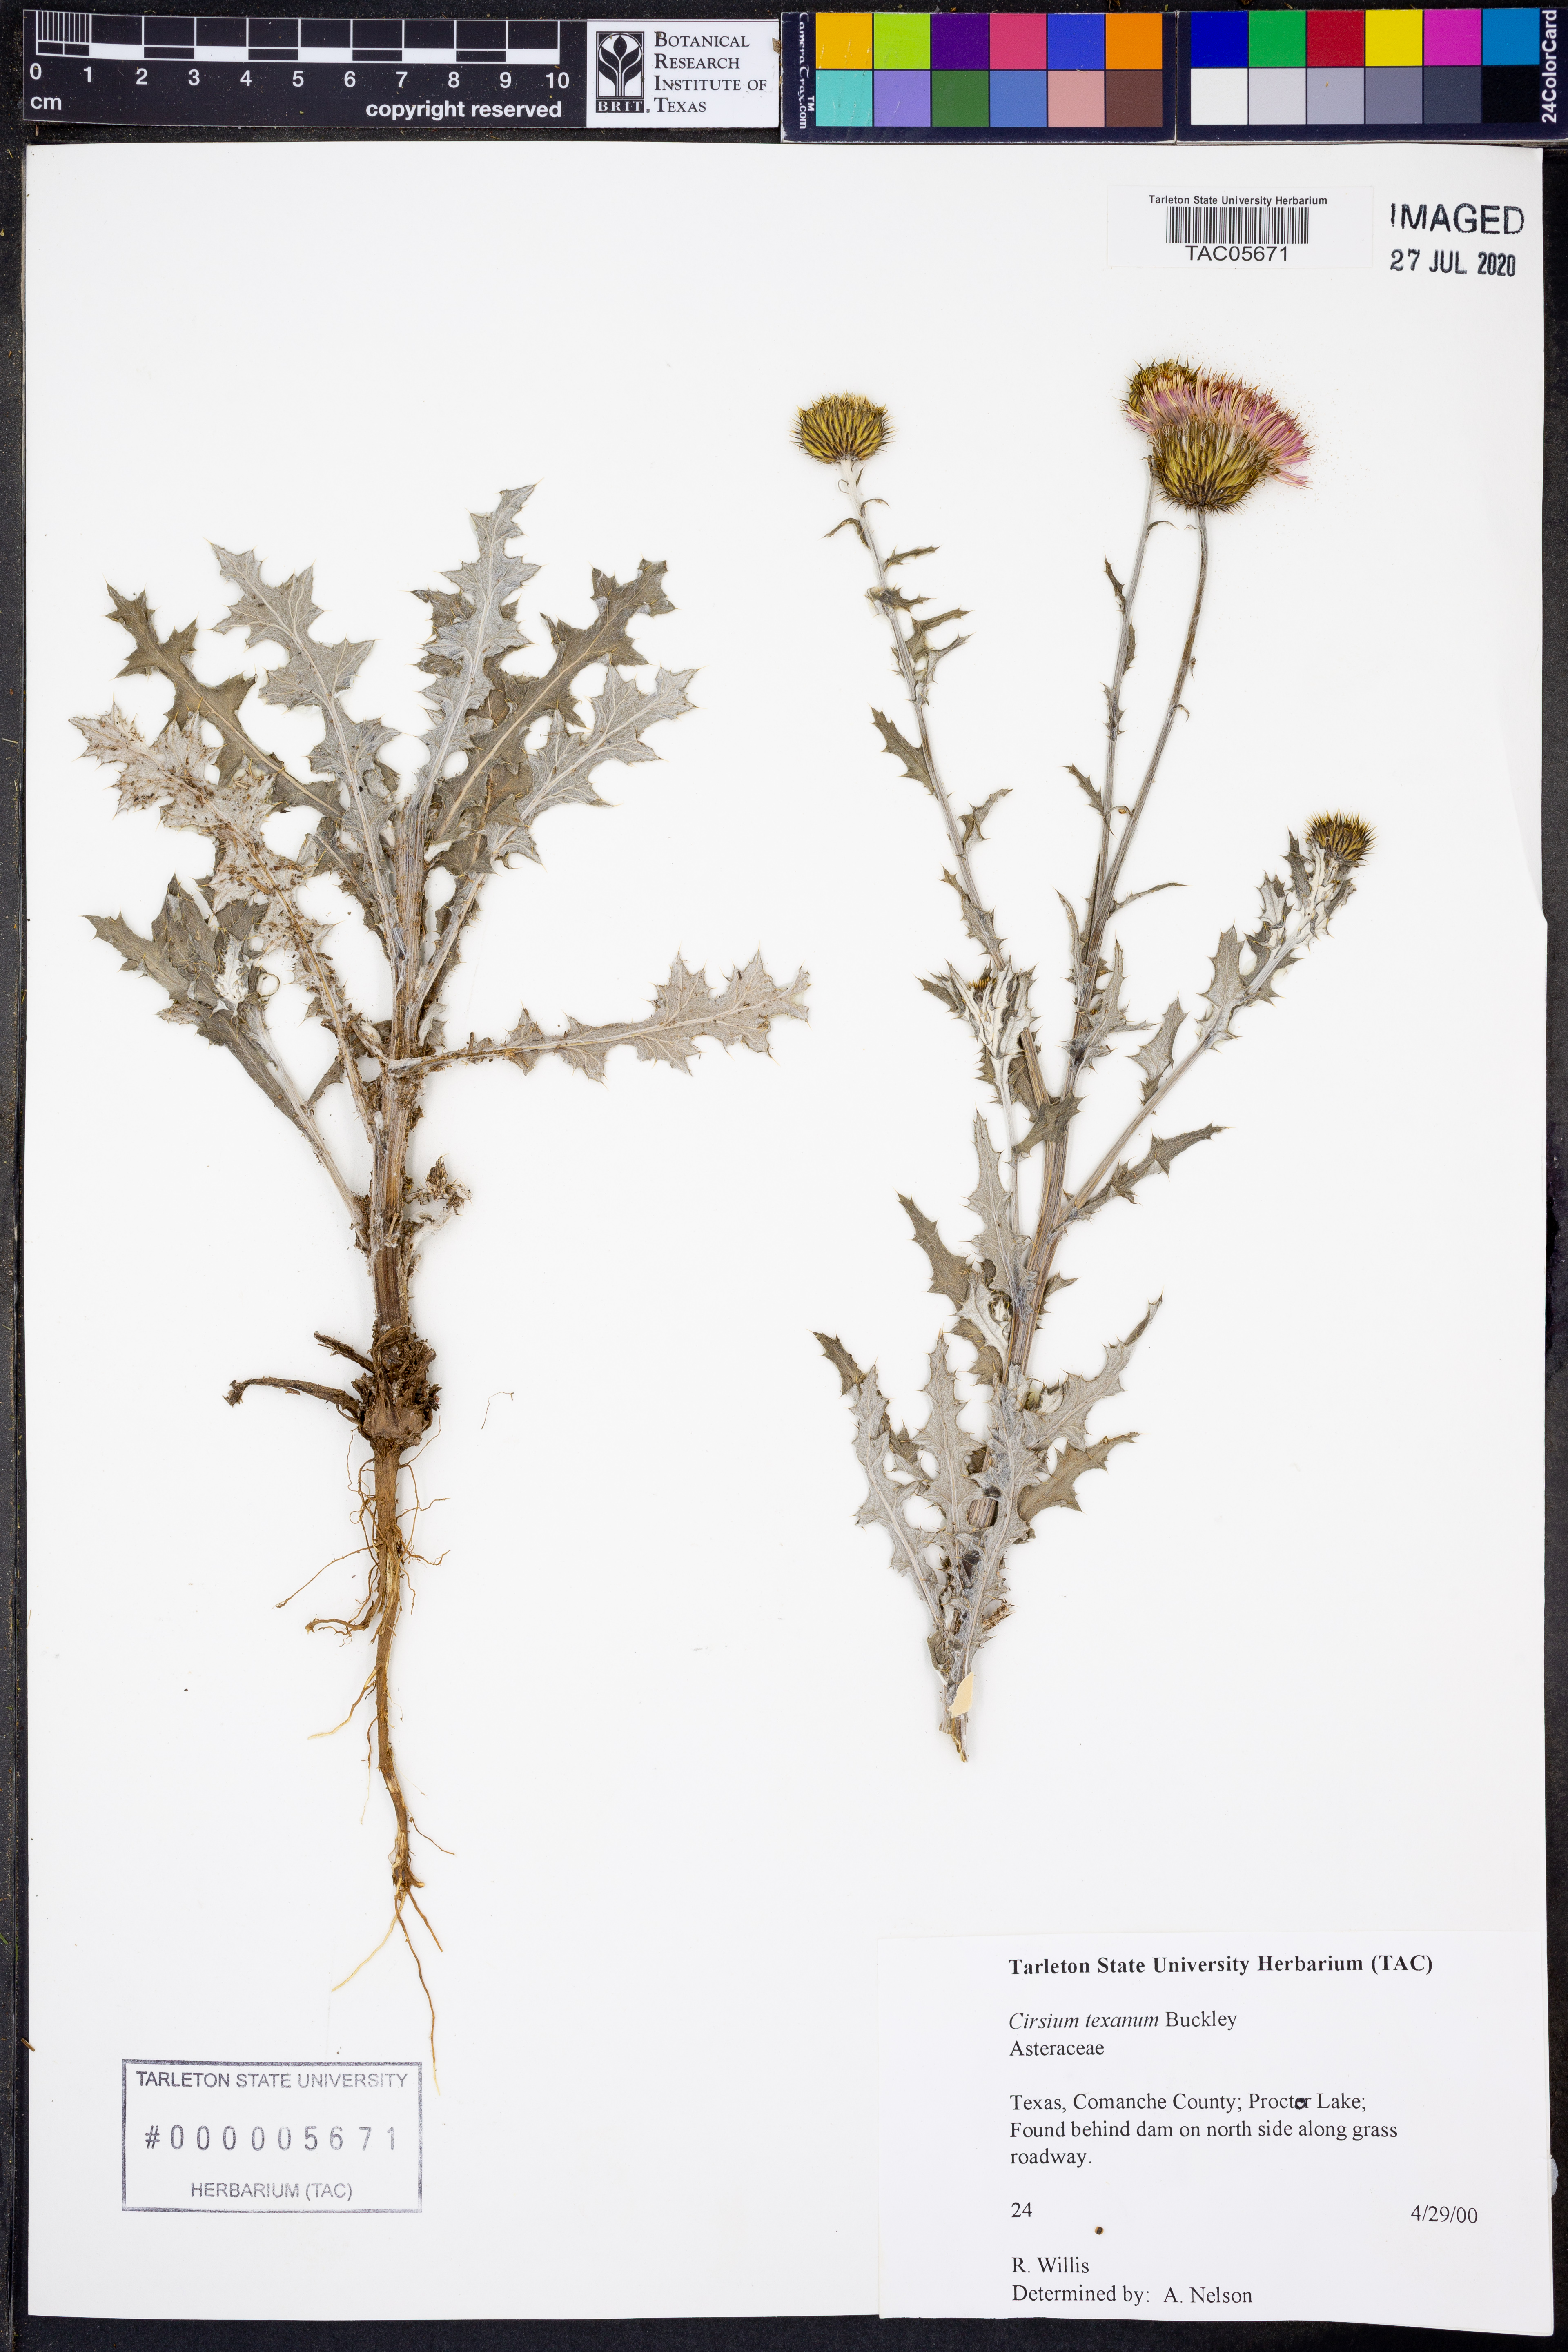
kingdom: Plantae
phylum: Tracheophyta
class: Magnoliopsida
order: Asterales
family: Asteraceae
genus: Cirsium
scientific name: Cirsium texanum
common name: Texas purple thistle
